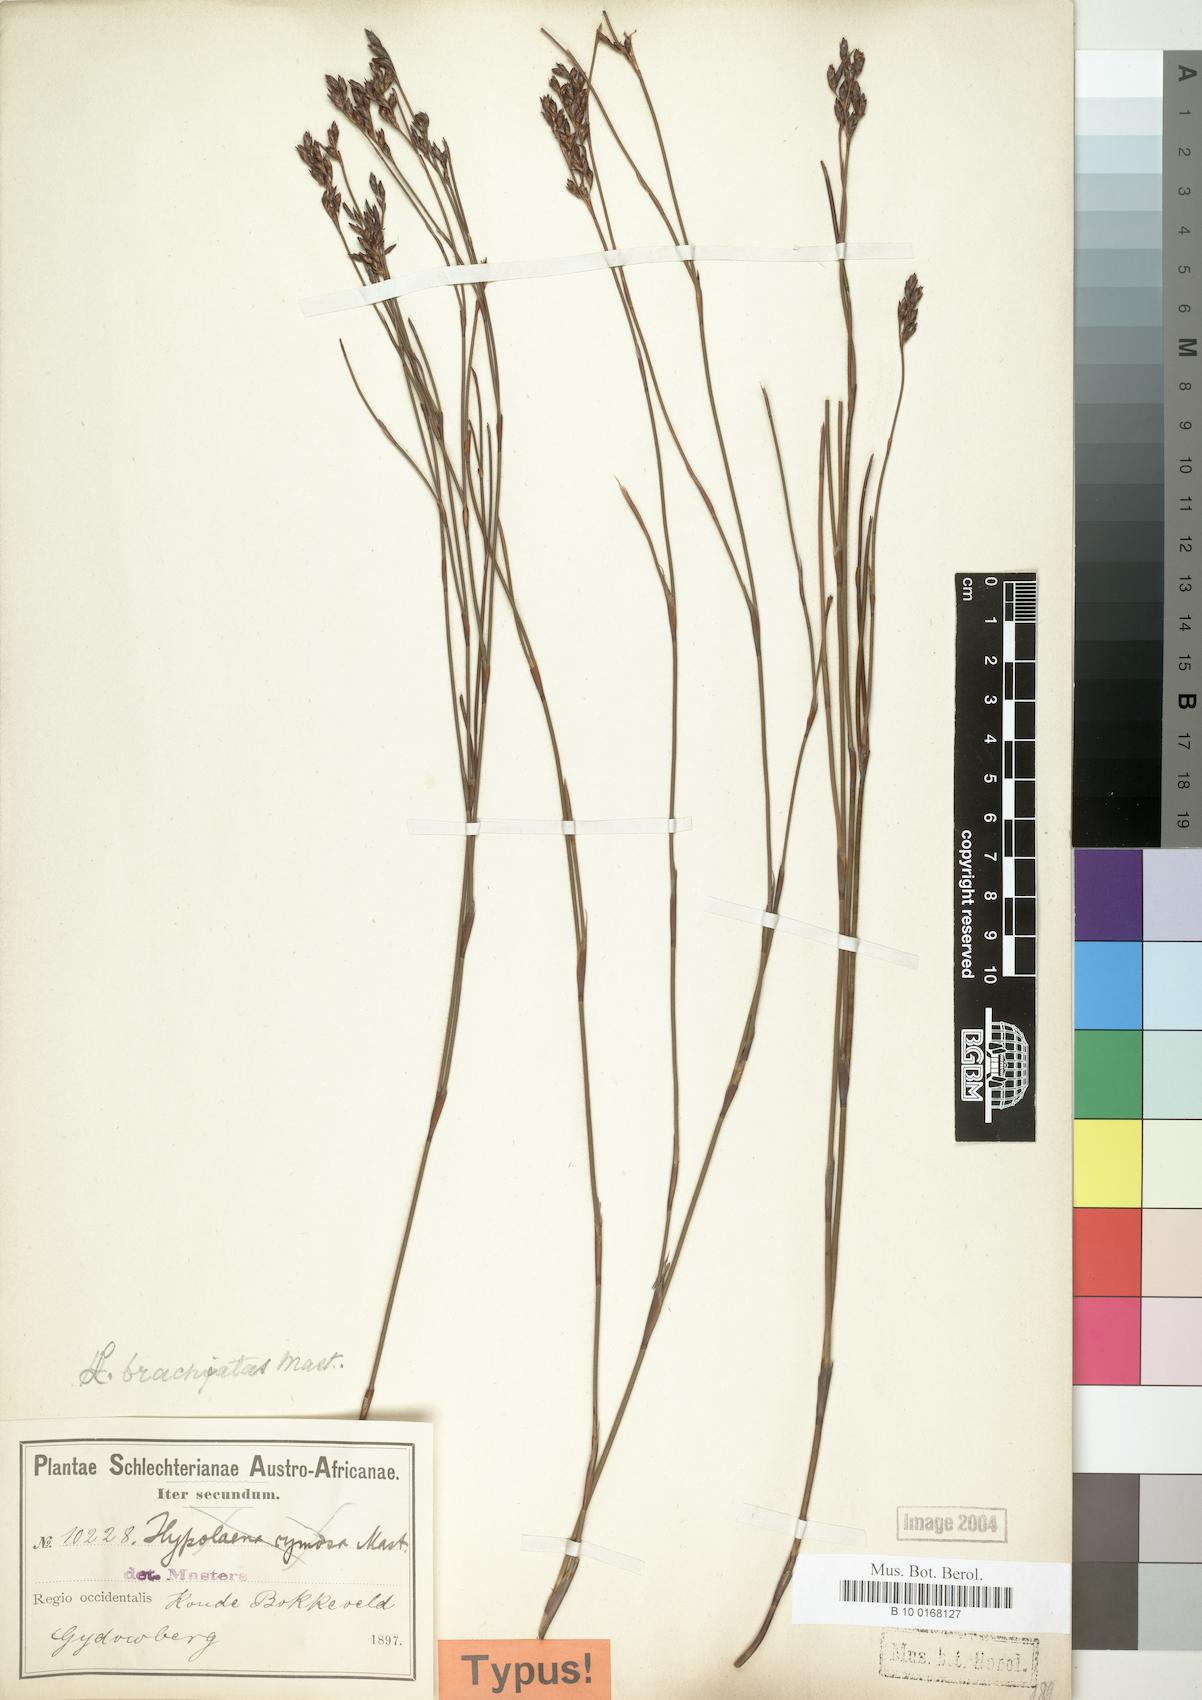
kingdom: Plantae
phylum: Tracheophyta
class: Liliopsida
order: Poales
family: Restionaceae
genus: Restio
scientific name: Restio brachiatus
